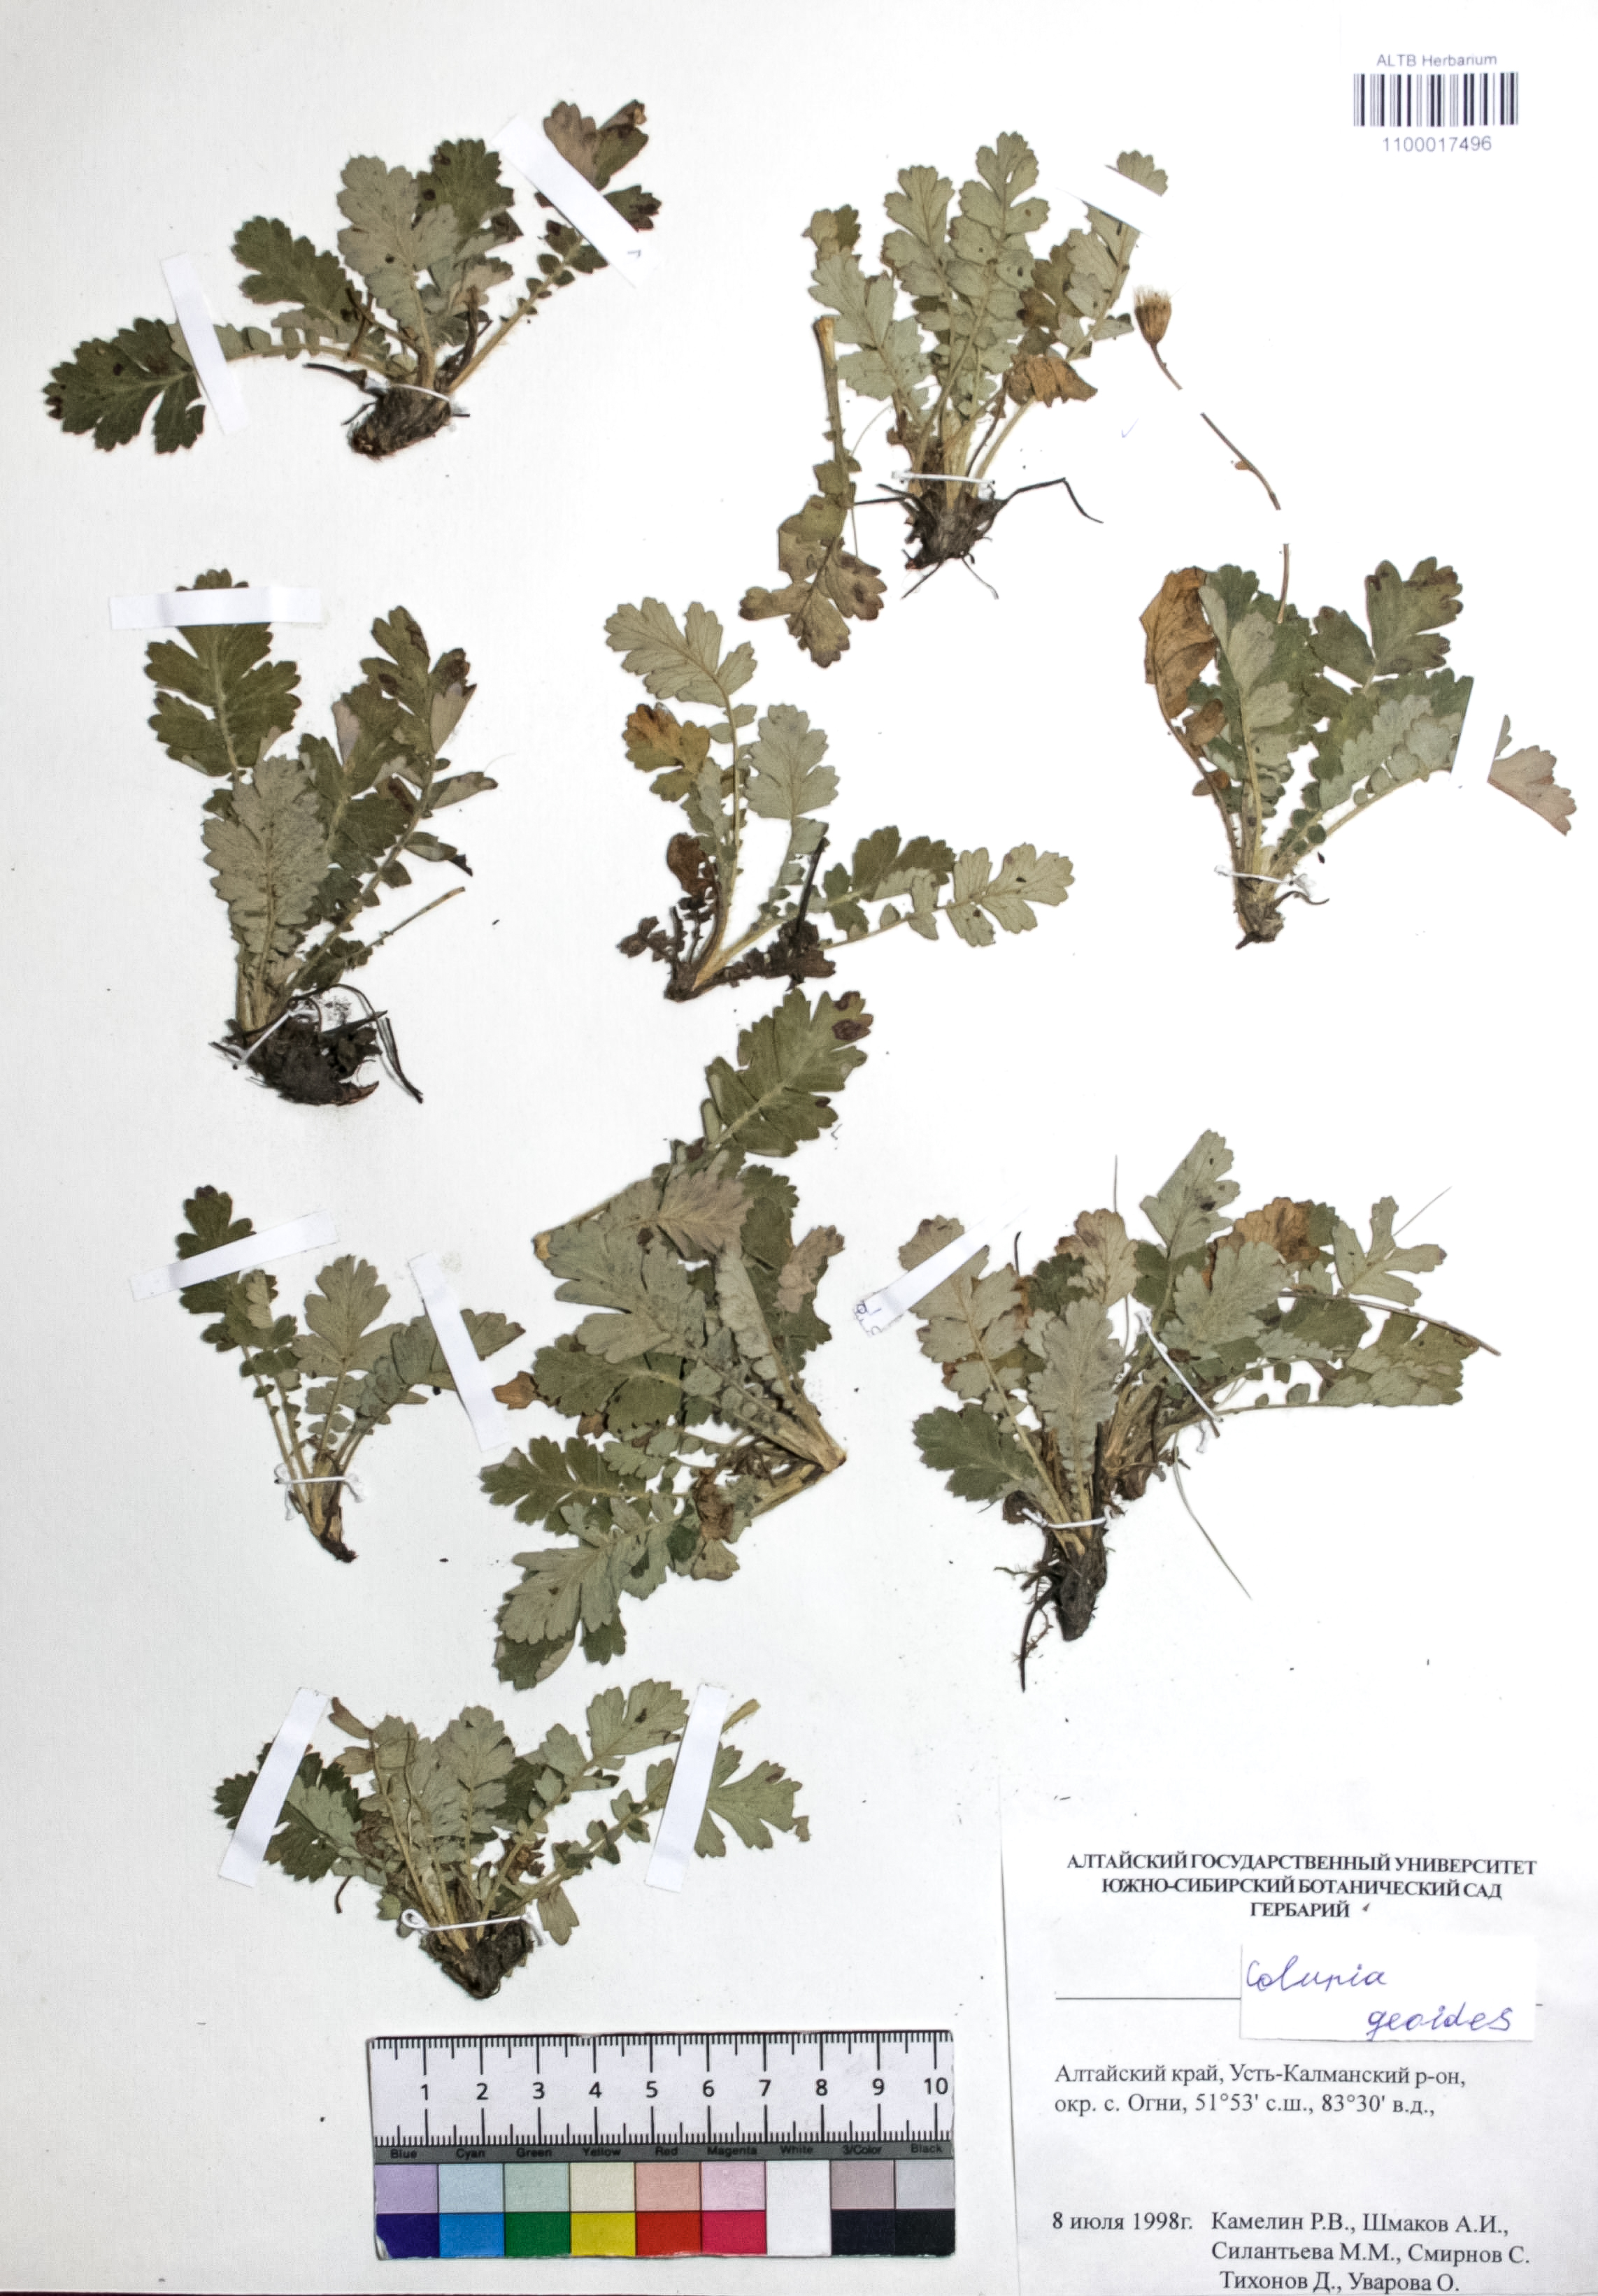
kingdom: Plantae
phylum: Tracheophyta
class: Magnoliopsida
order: Rosales
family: Rosaceae
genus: Geum
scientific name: Geum geoides
